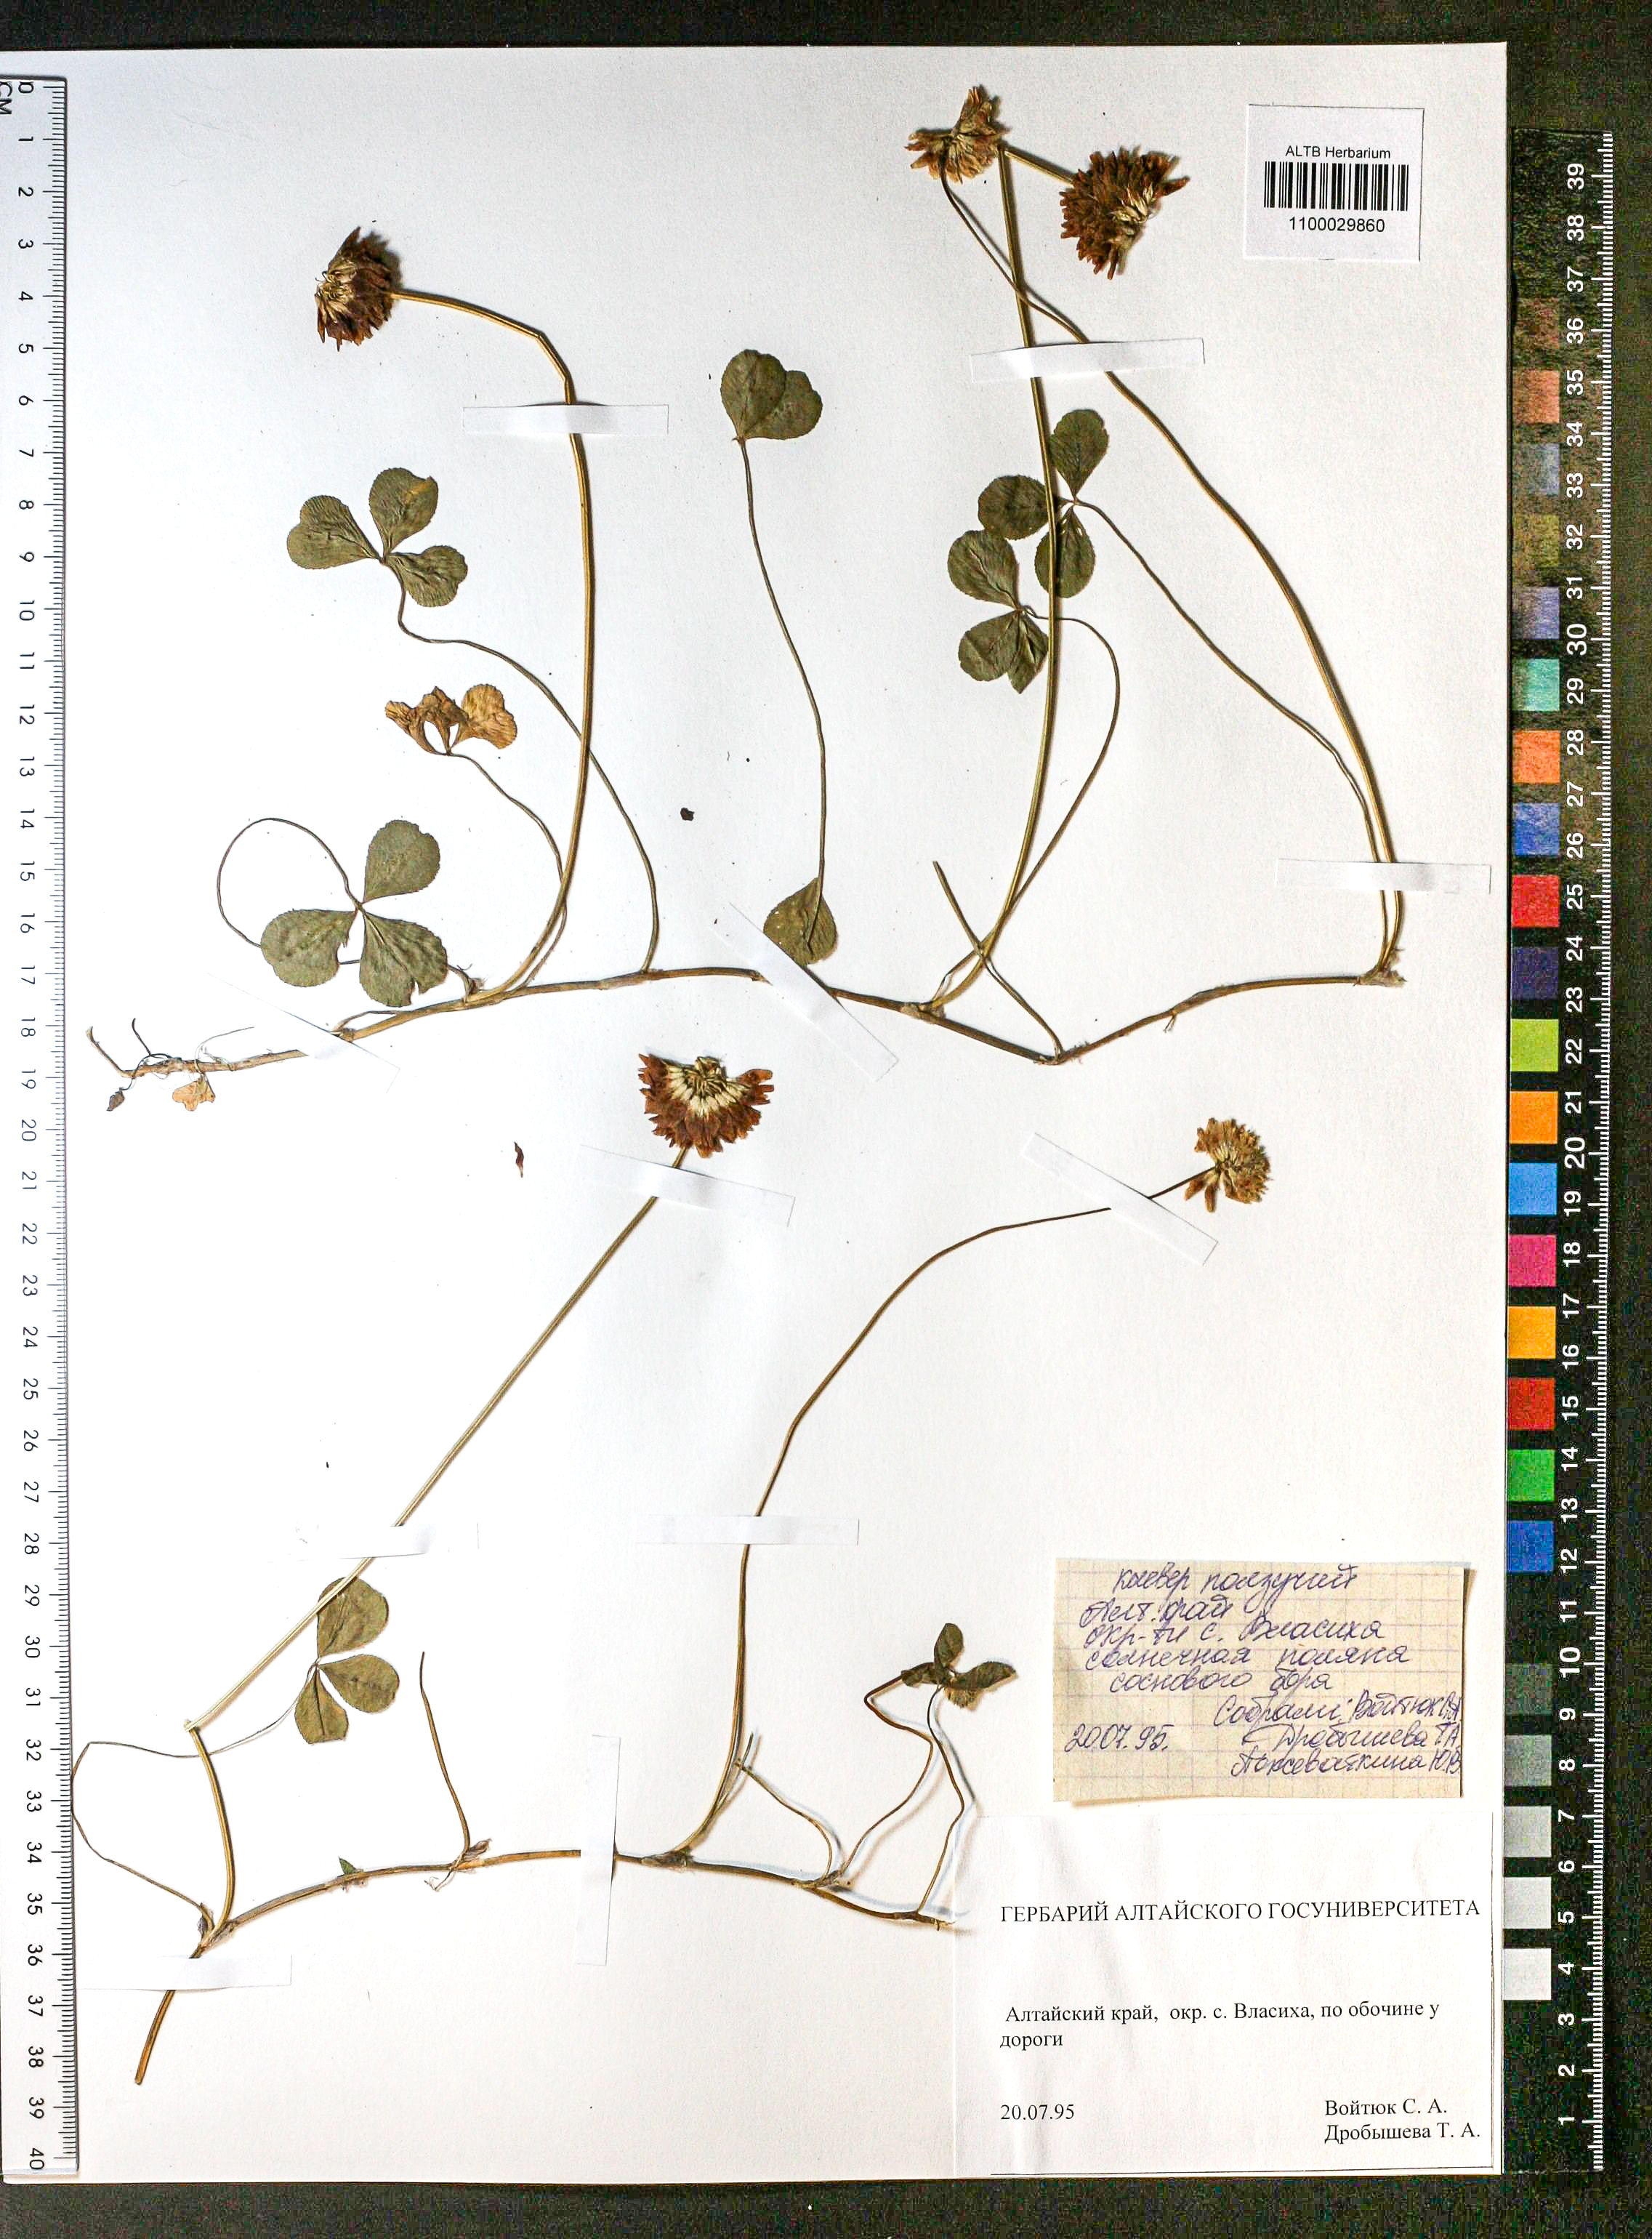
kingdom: Plantae
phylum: Tracheophyta
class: Magnoliopsida
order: Fabales
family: Fabaceae
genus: Trifolium
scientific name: Trifolium repens
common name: White clover
